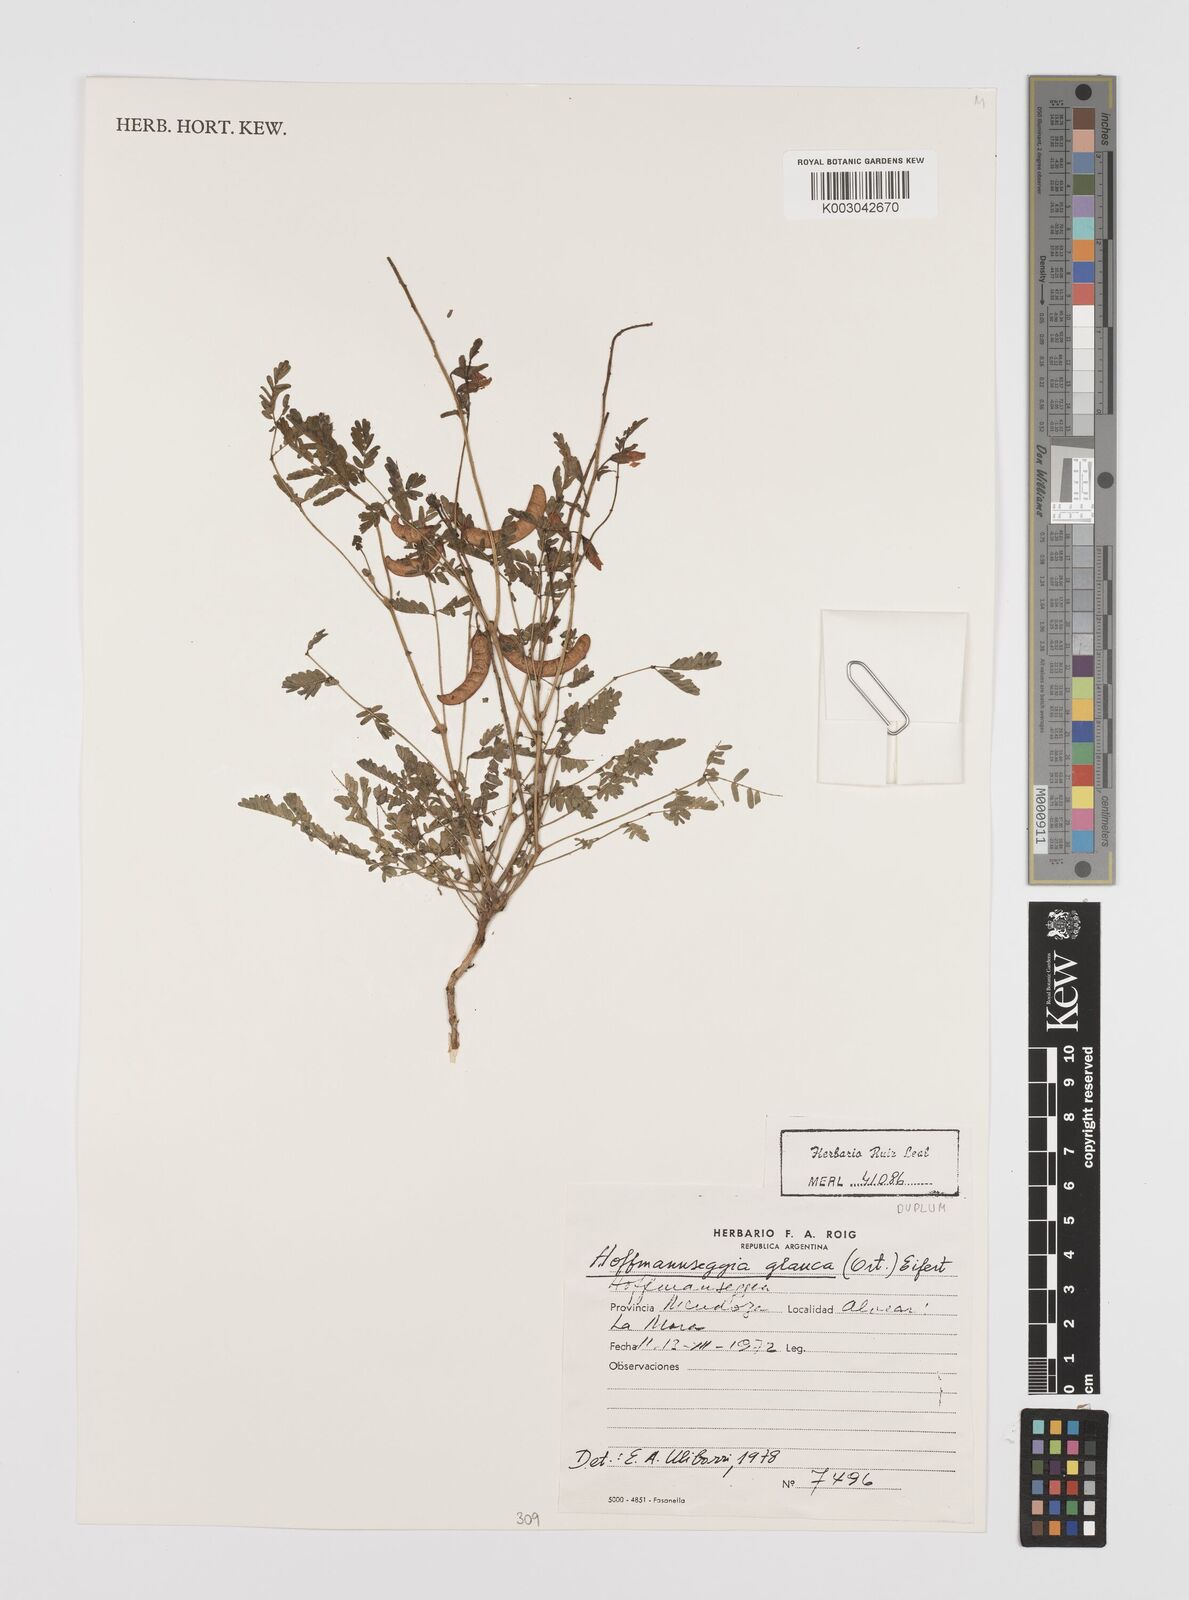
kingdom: Plantae
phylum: Tracheophyta
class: Magnoliopsida
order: Fabales
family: Fabaceae
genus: Hoffmannseggia
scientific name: Hoffmannseggia glauca
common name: Pignut
